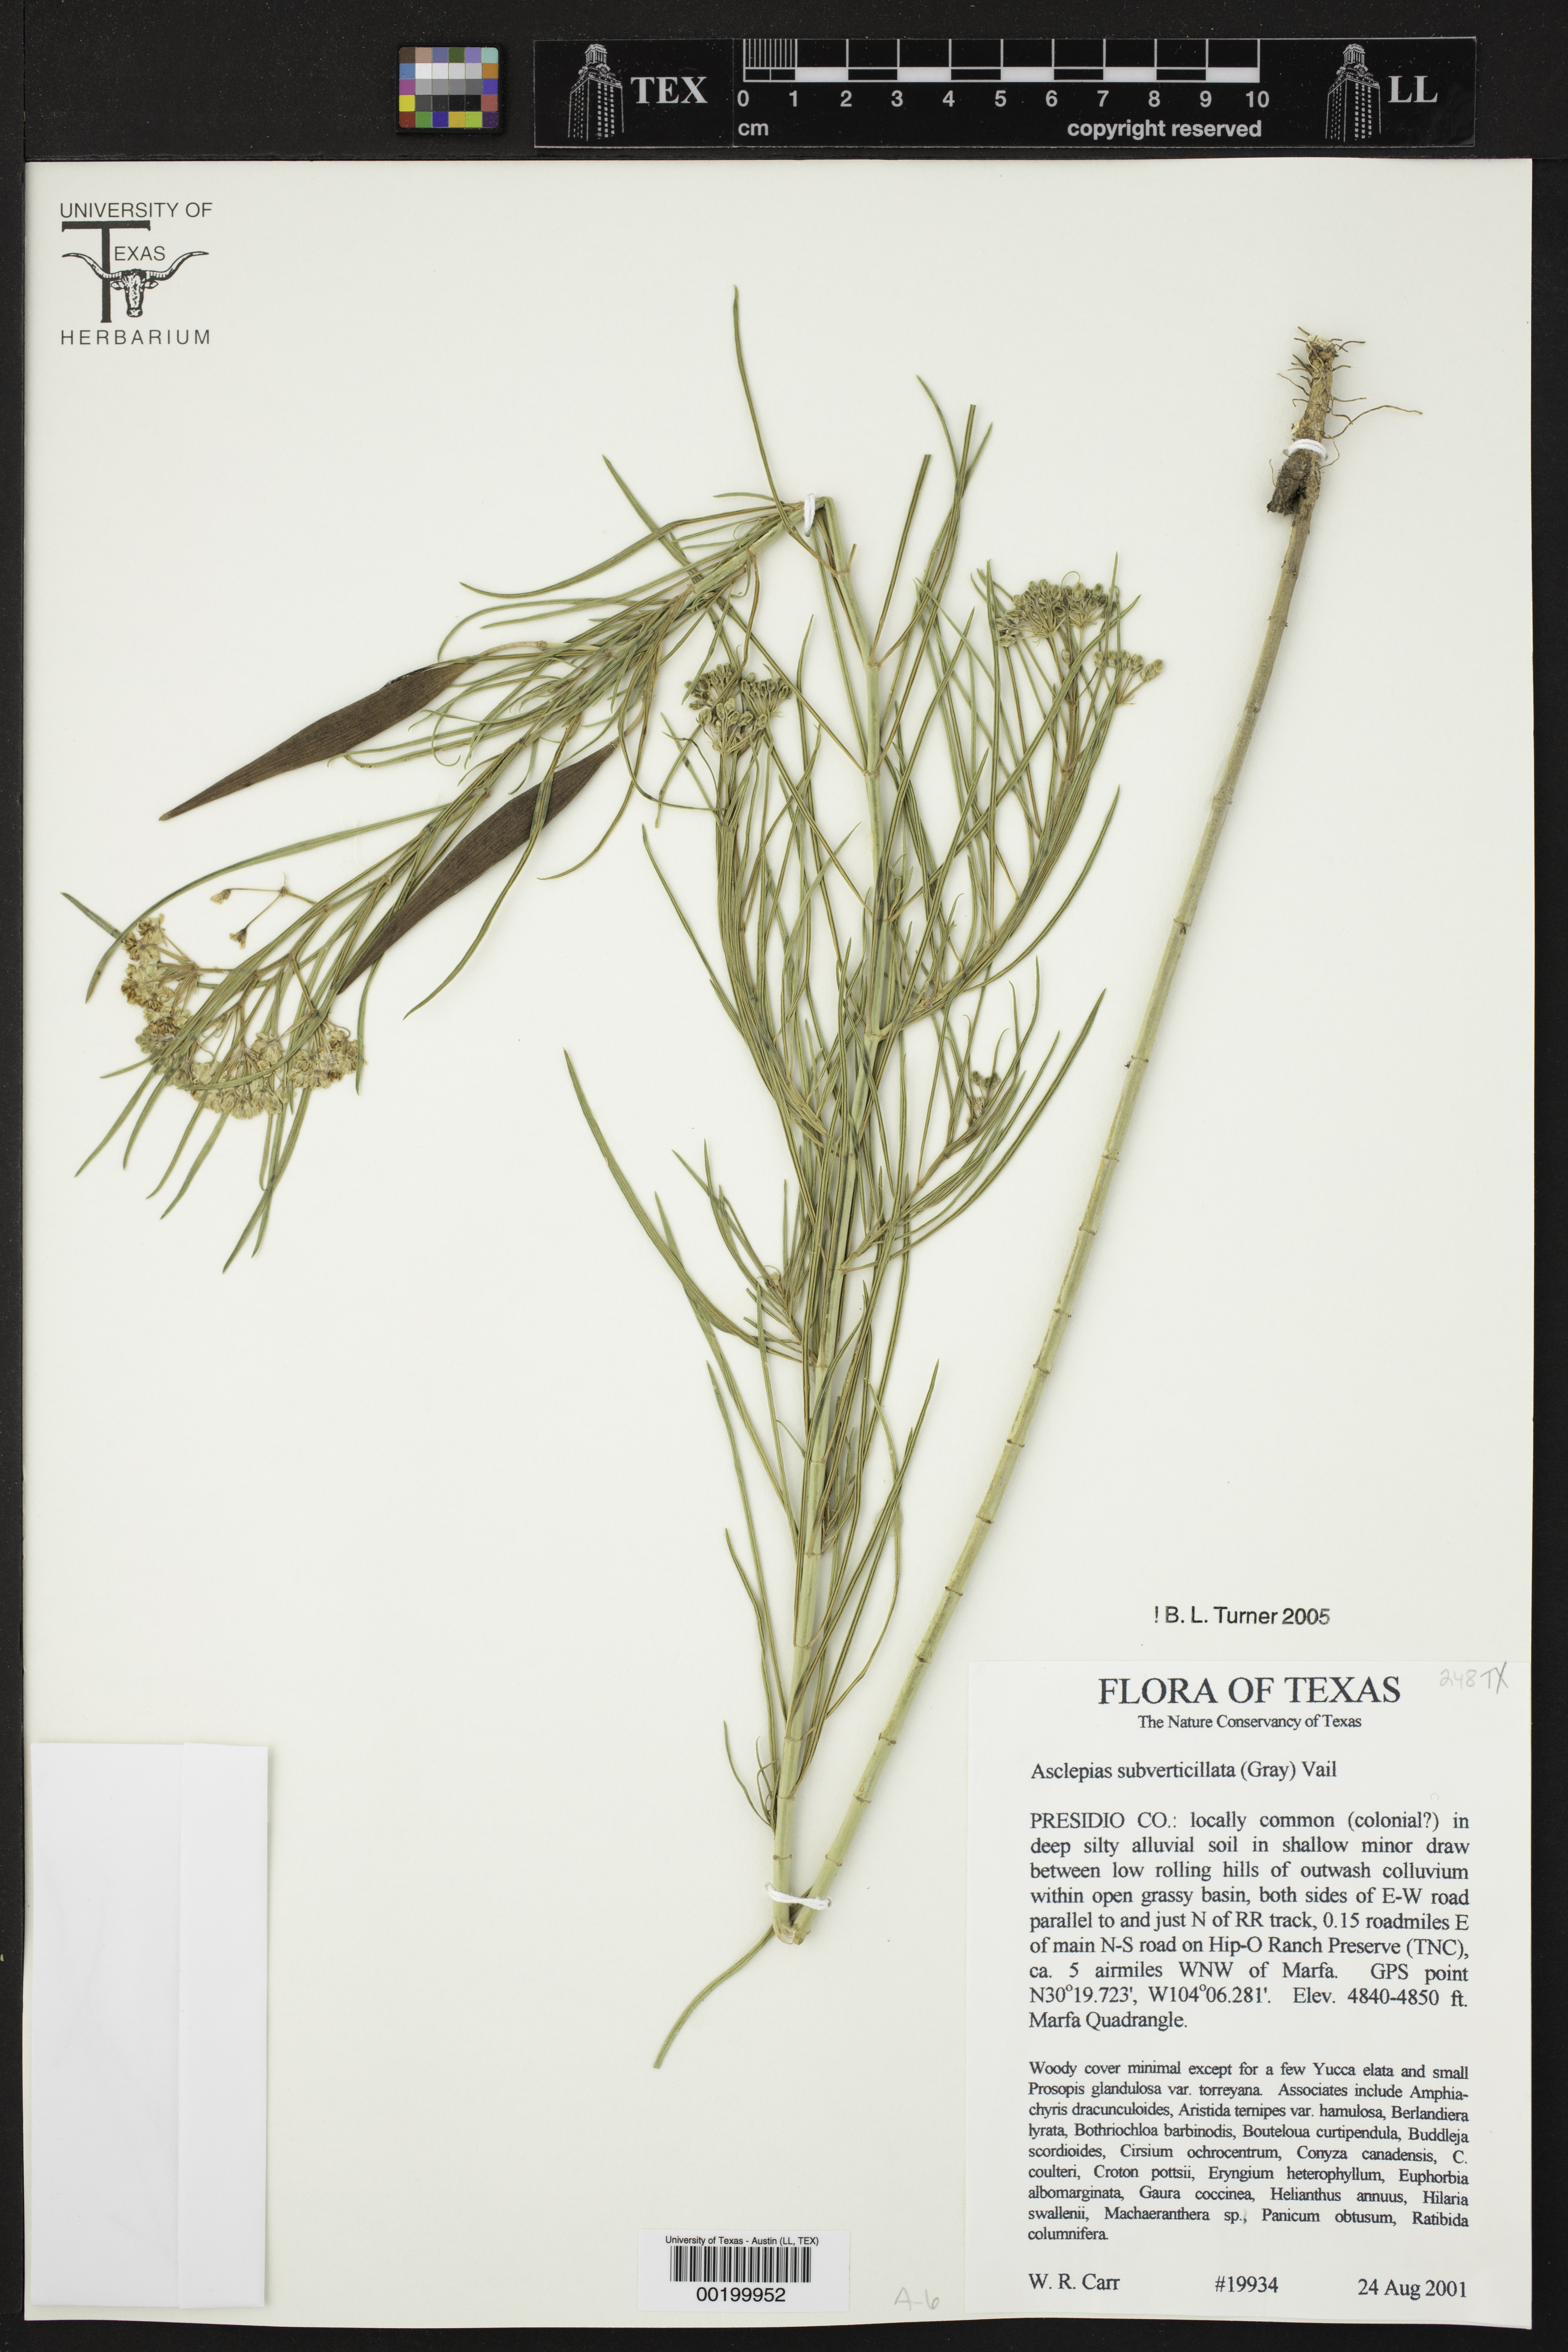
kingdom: Plantae
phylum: Tracheophyta
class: Magnoliopsida
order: Gentianales
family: Apocynaceae
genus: Asclepias
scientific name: Asclepias subverticillata
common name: Horsetail milkweed
